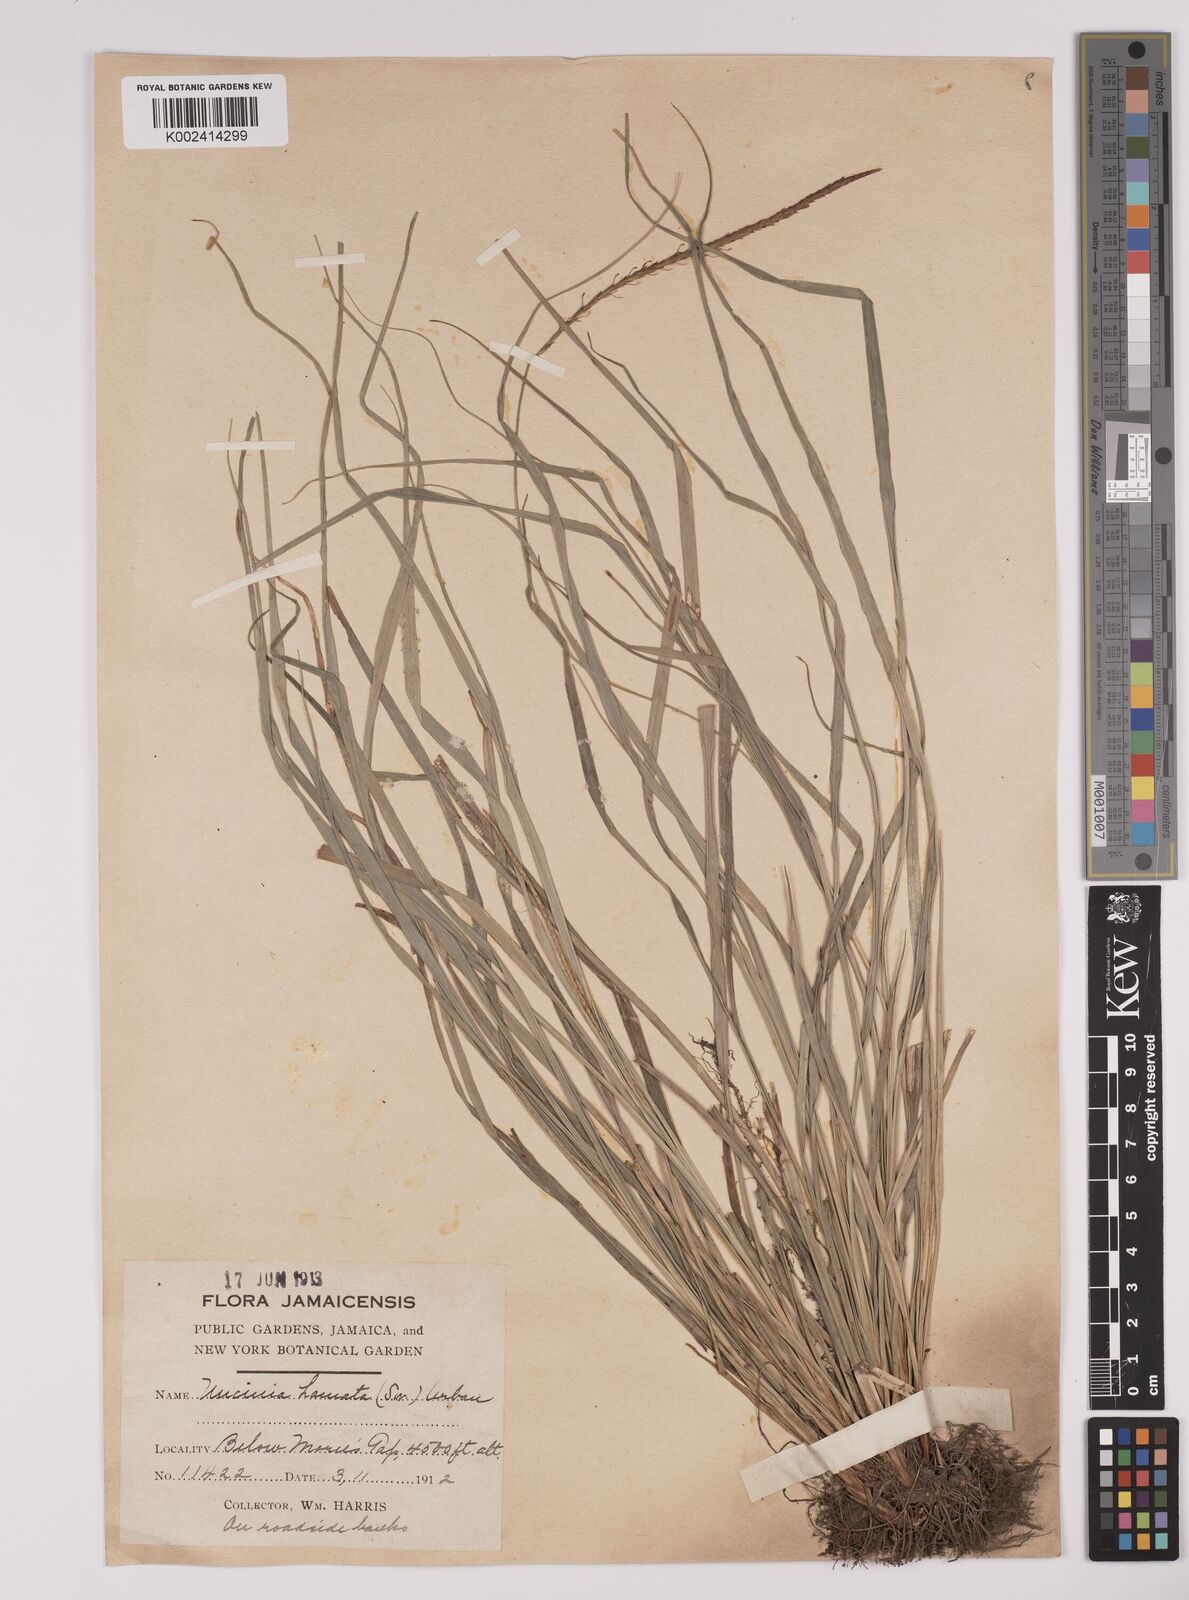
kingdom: Plantae
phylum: Tracheophyta
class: Liliopsida
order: Poales
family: Cyperaceae
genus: Carex
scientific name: Carex hamata
